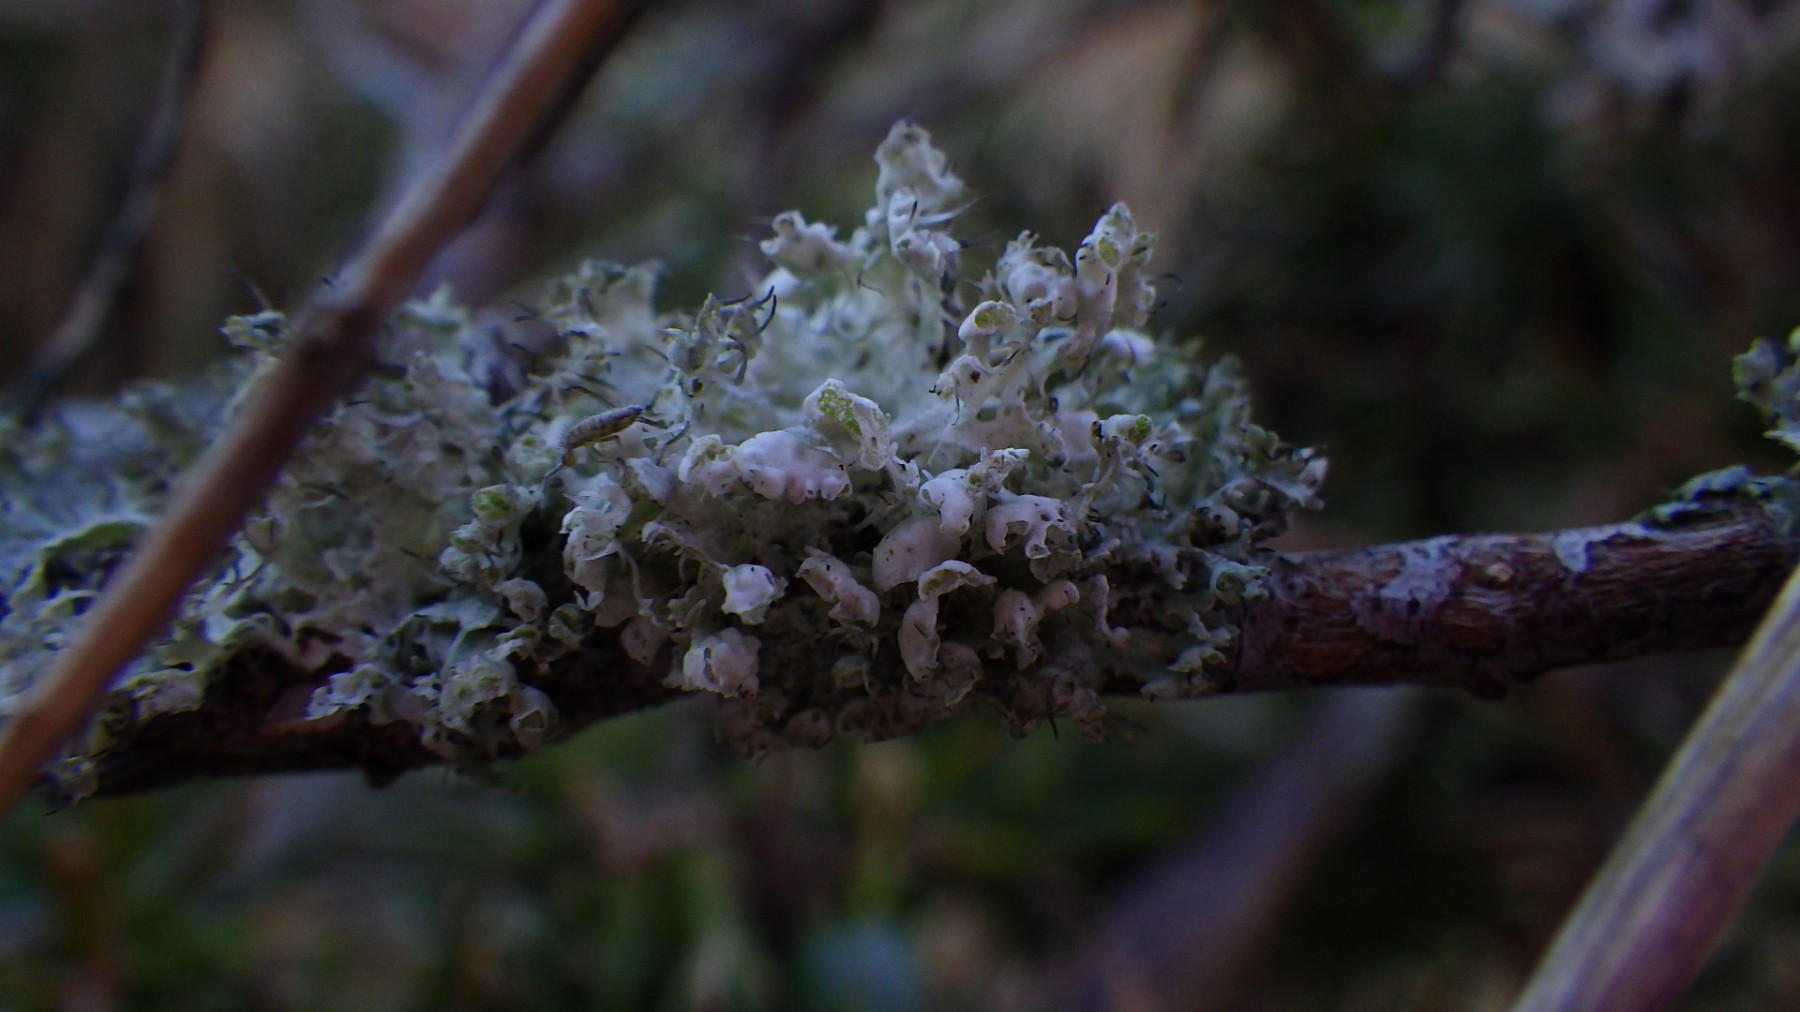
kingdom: Fungi
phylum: Ascomycota
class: Lecanoromycetes
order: Caliciales
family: Physciaceae
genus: Physcia
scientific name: Physcia adscendens
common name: hætte-rosetlav
